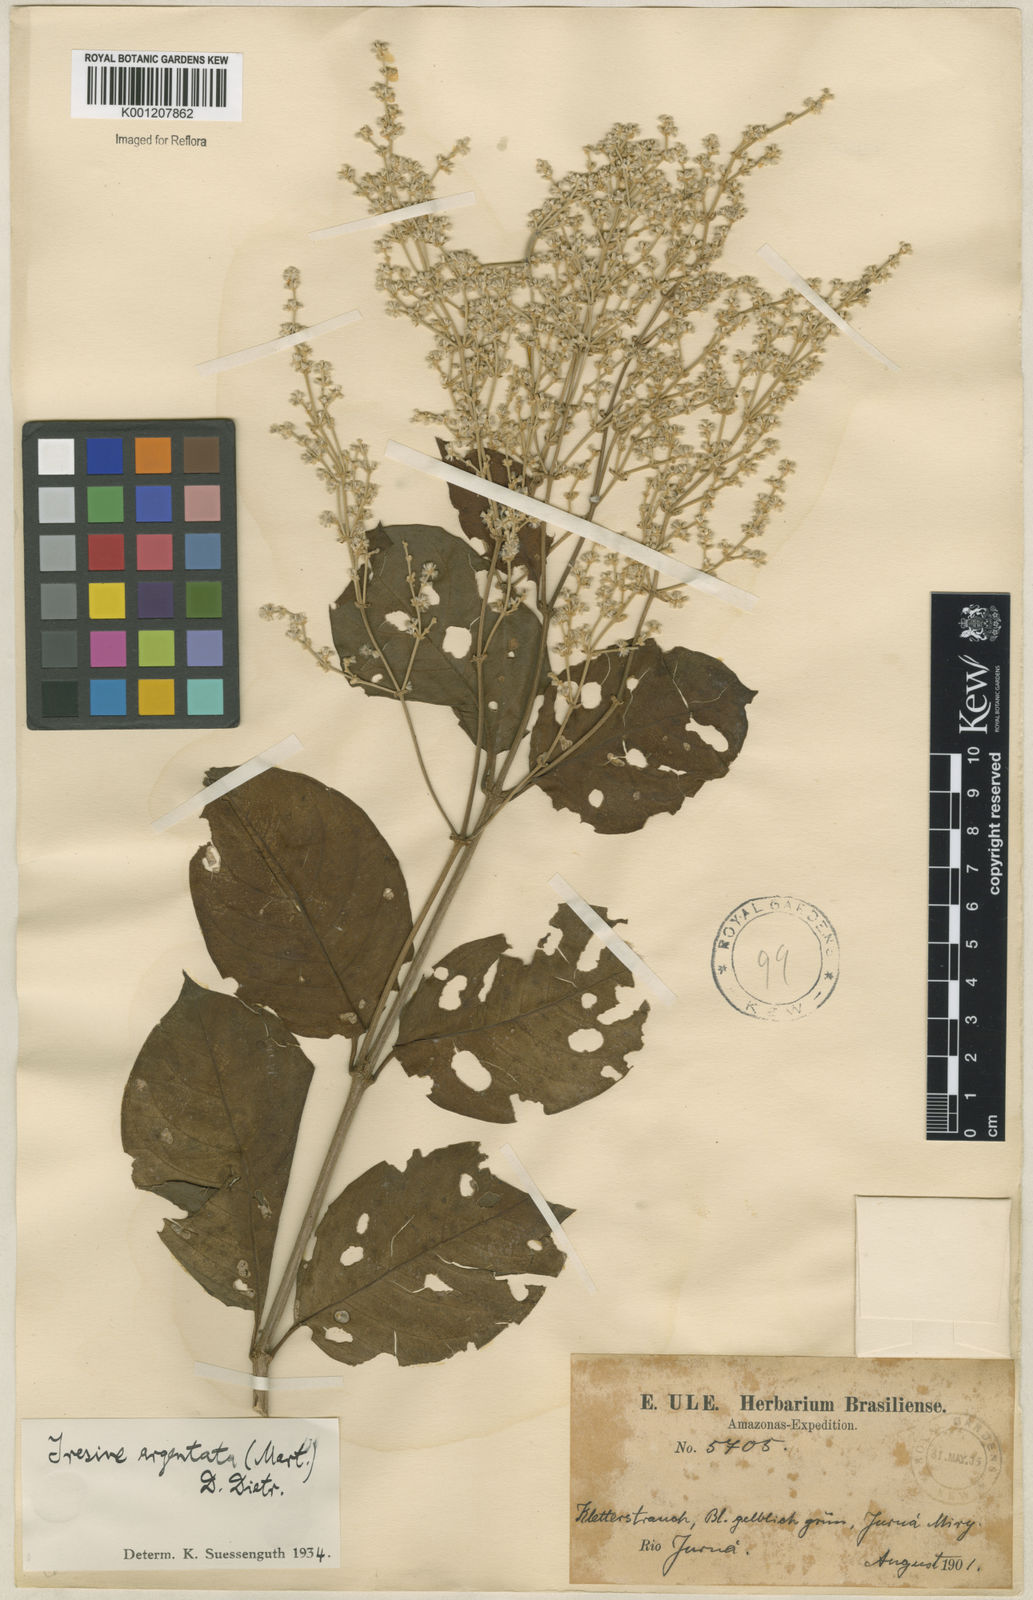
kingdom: Plantae
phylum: Tracheophyta
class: Magnoliopsida
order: Caryophyllales
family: Amaranthaceae
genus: Pedersenia
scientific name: Pedersenia argentata
